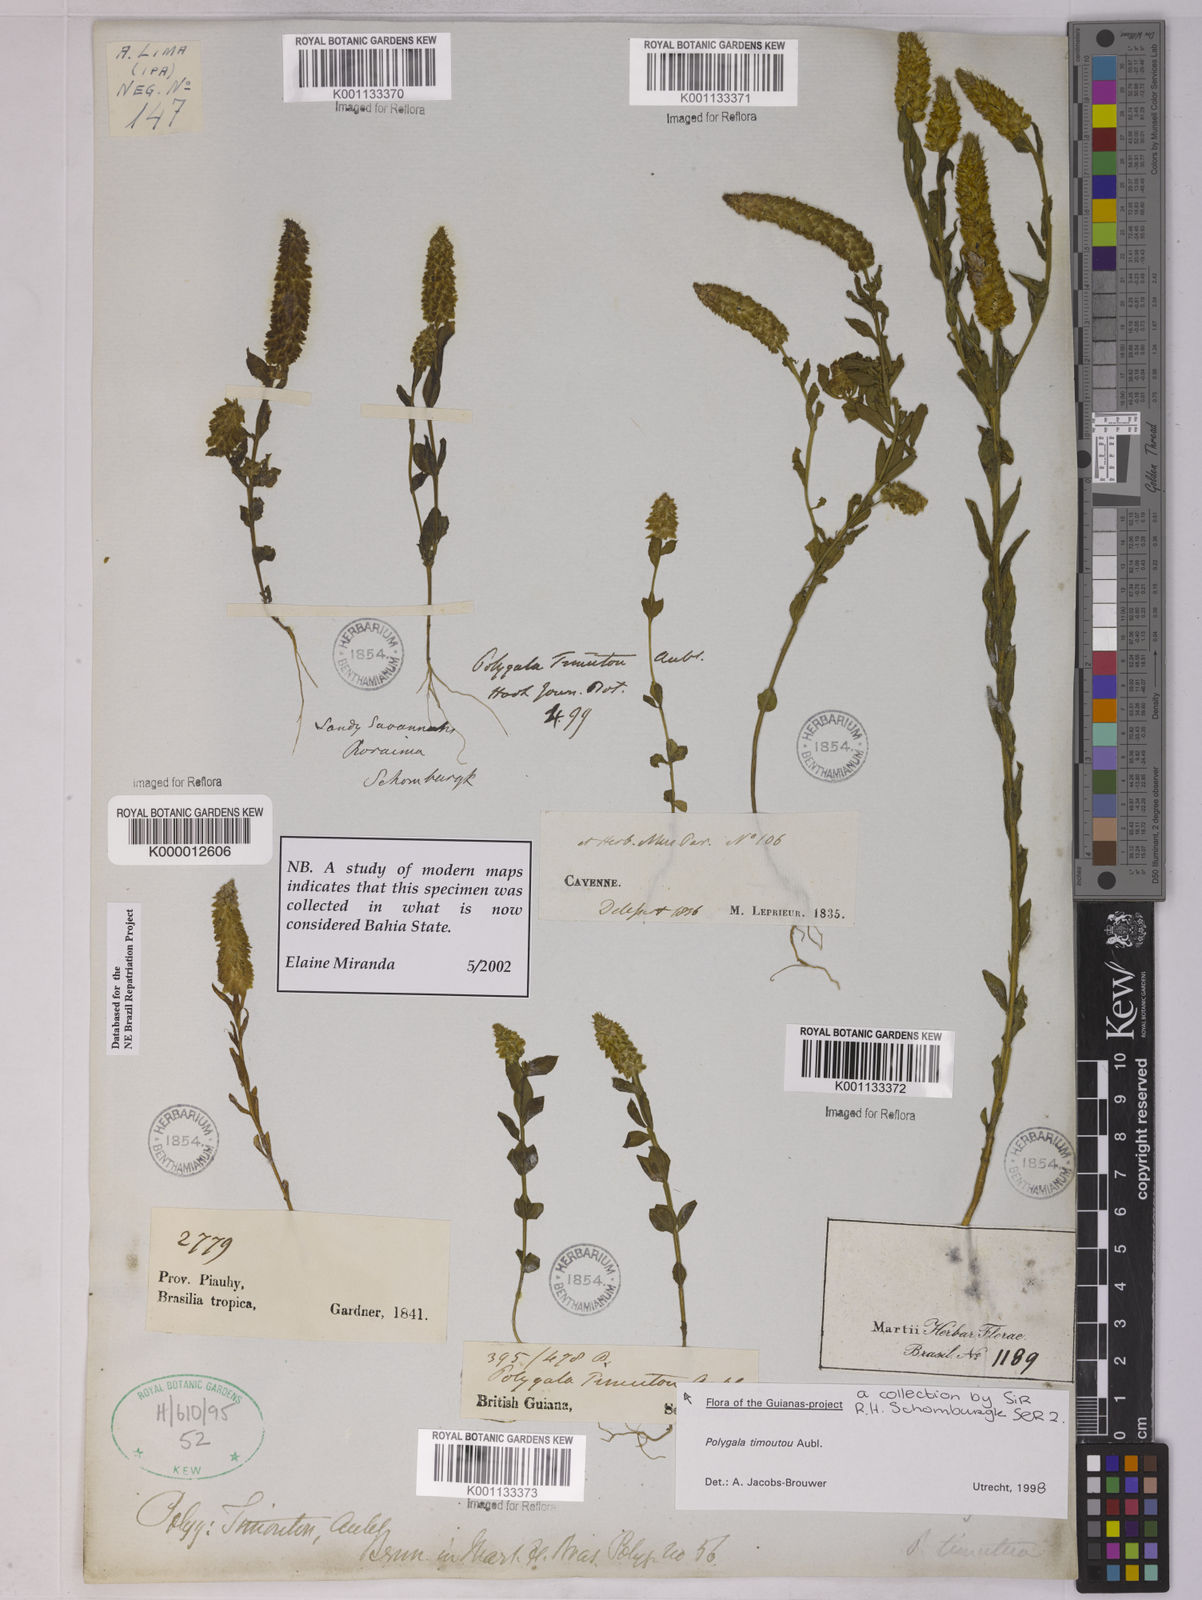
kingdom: Plantae
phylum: Tracheophyta
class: Magnoliopsida
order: Fabales
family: Polygalaceae
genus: Polygala
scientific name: Polygala timoutoides
